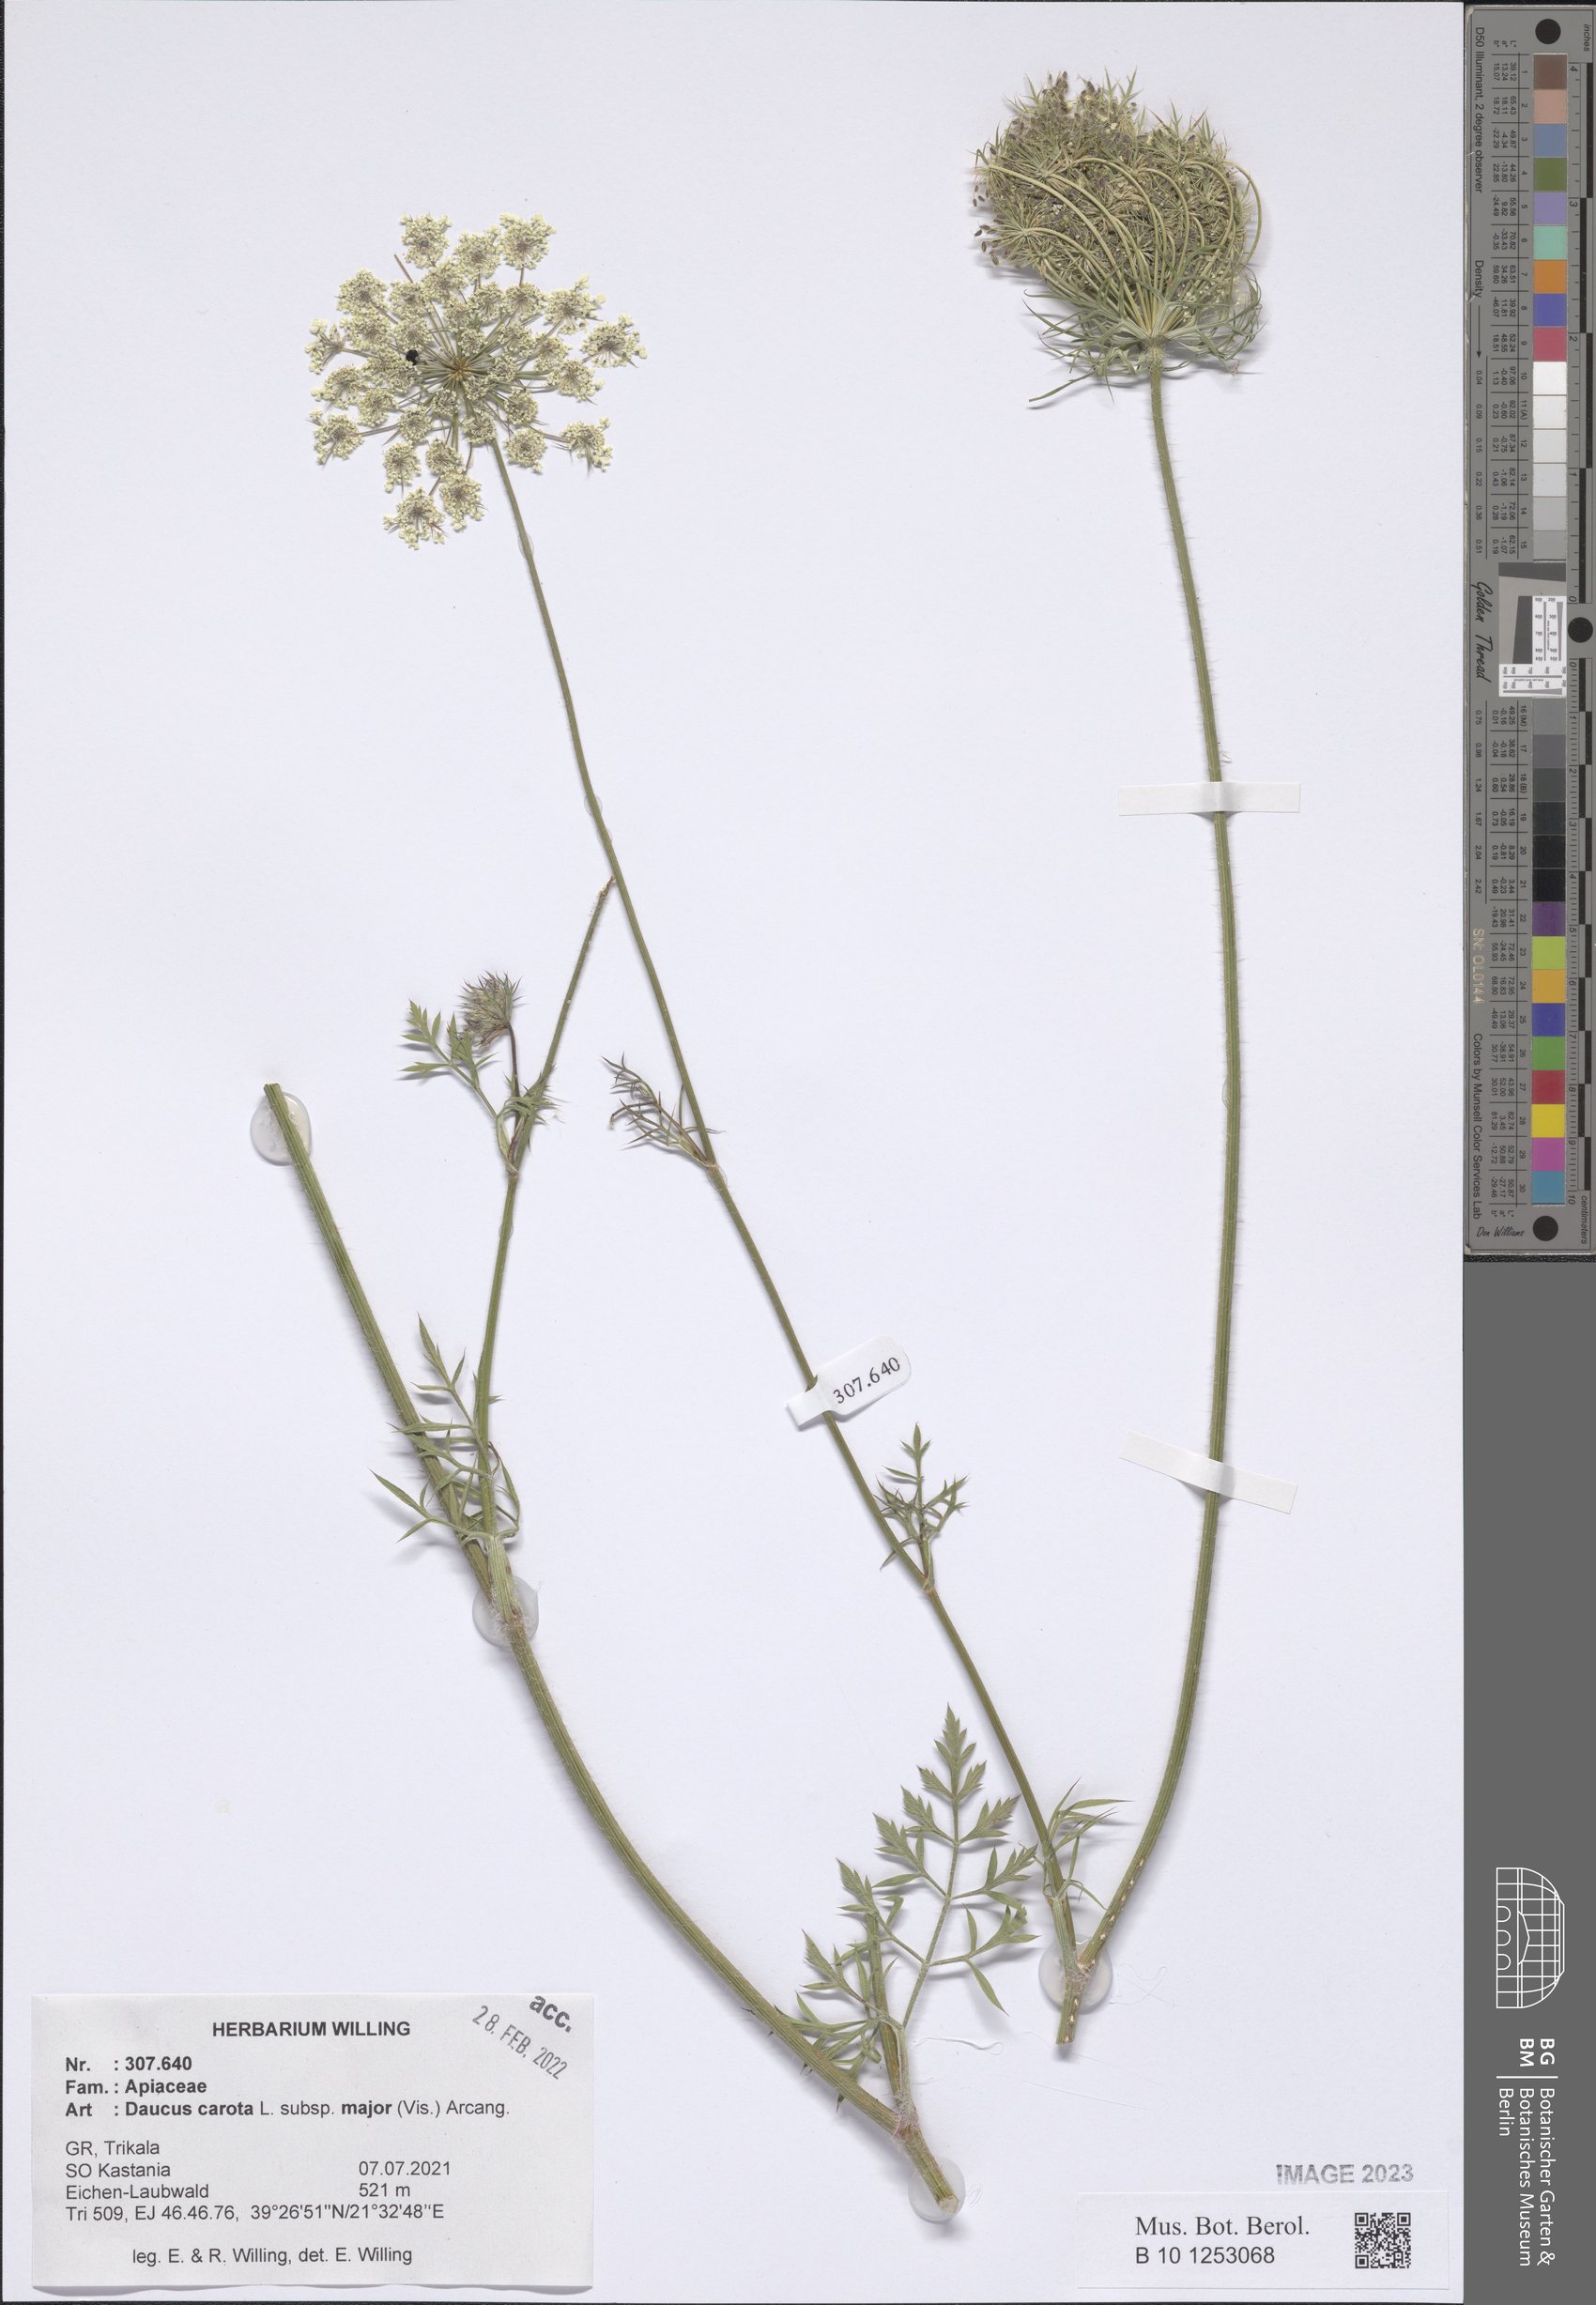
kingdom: Plantae
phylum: Tracheophyta
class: Magnoliopsida
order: Apiales
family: Apiaceae
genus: Daucus
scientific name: Daucus carota
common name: Wild carrot
